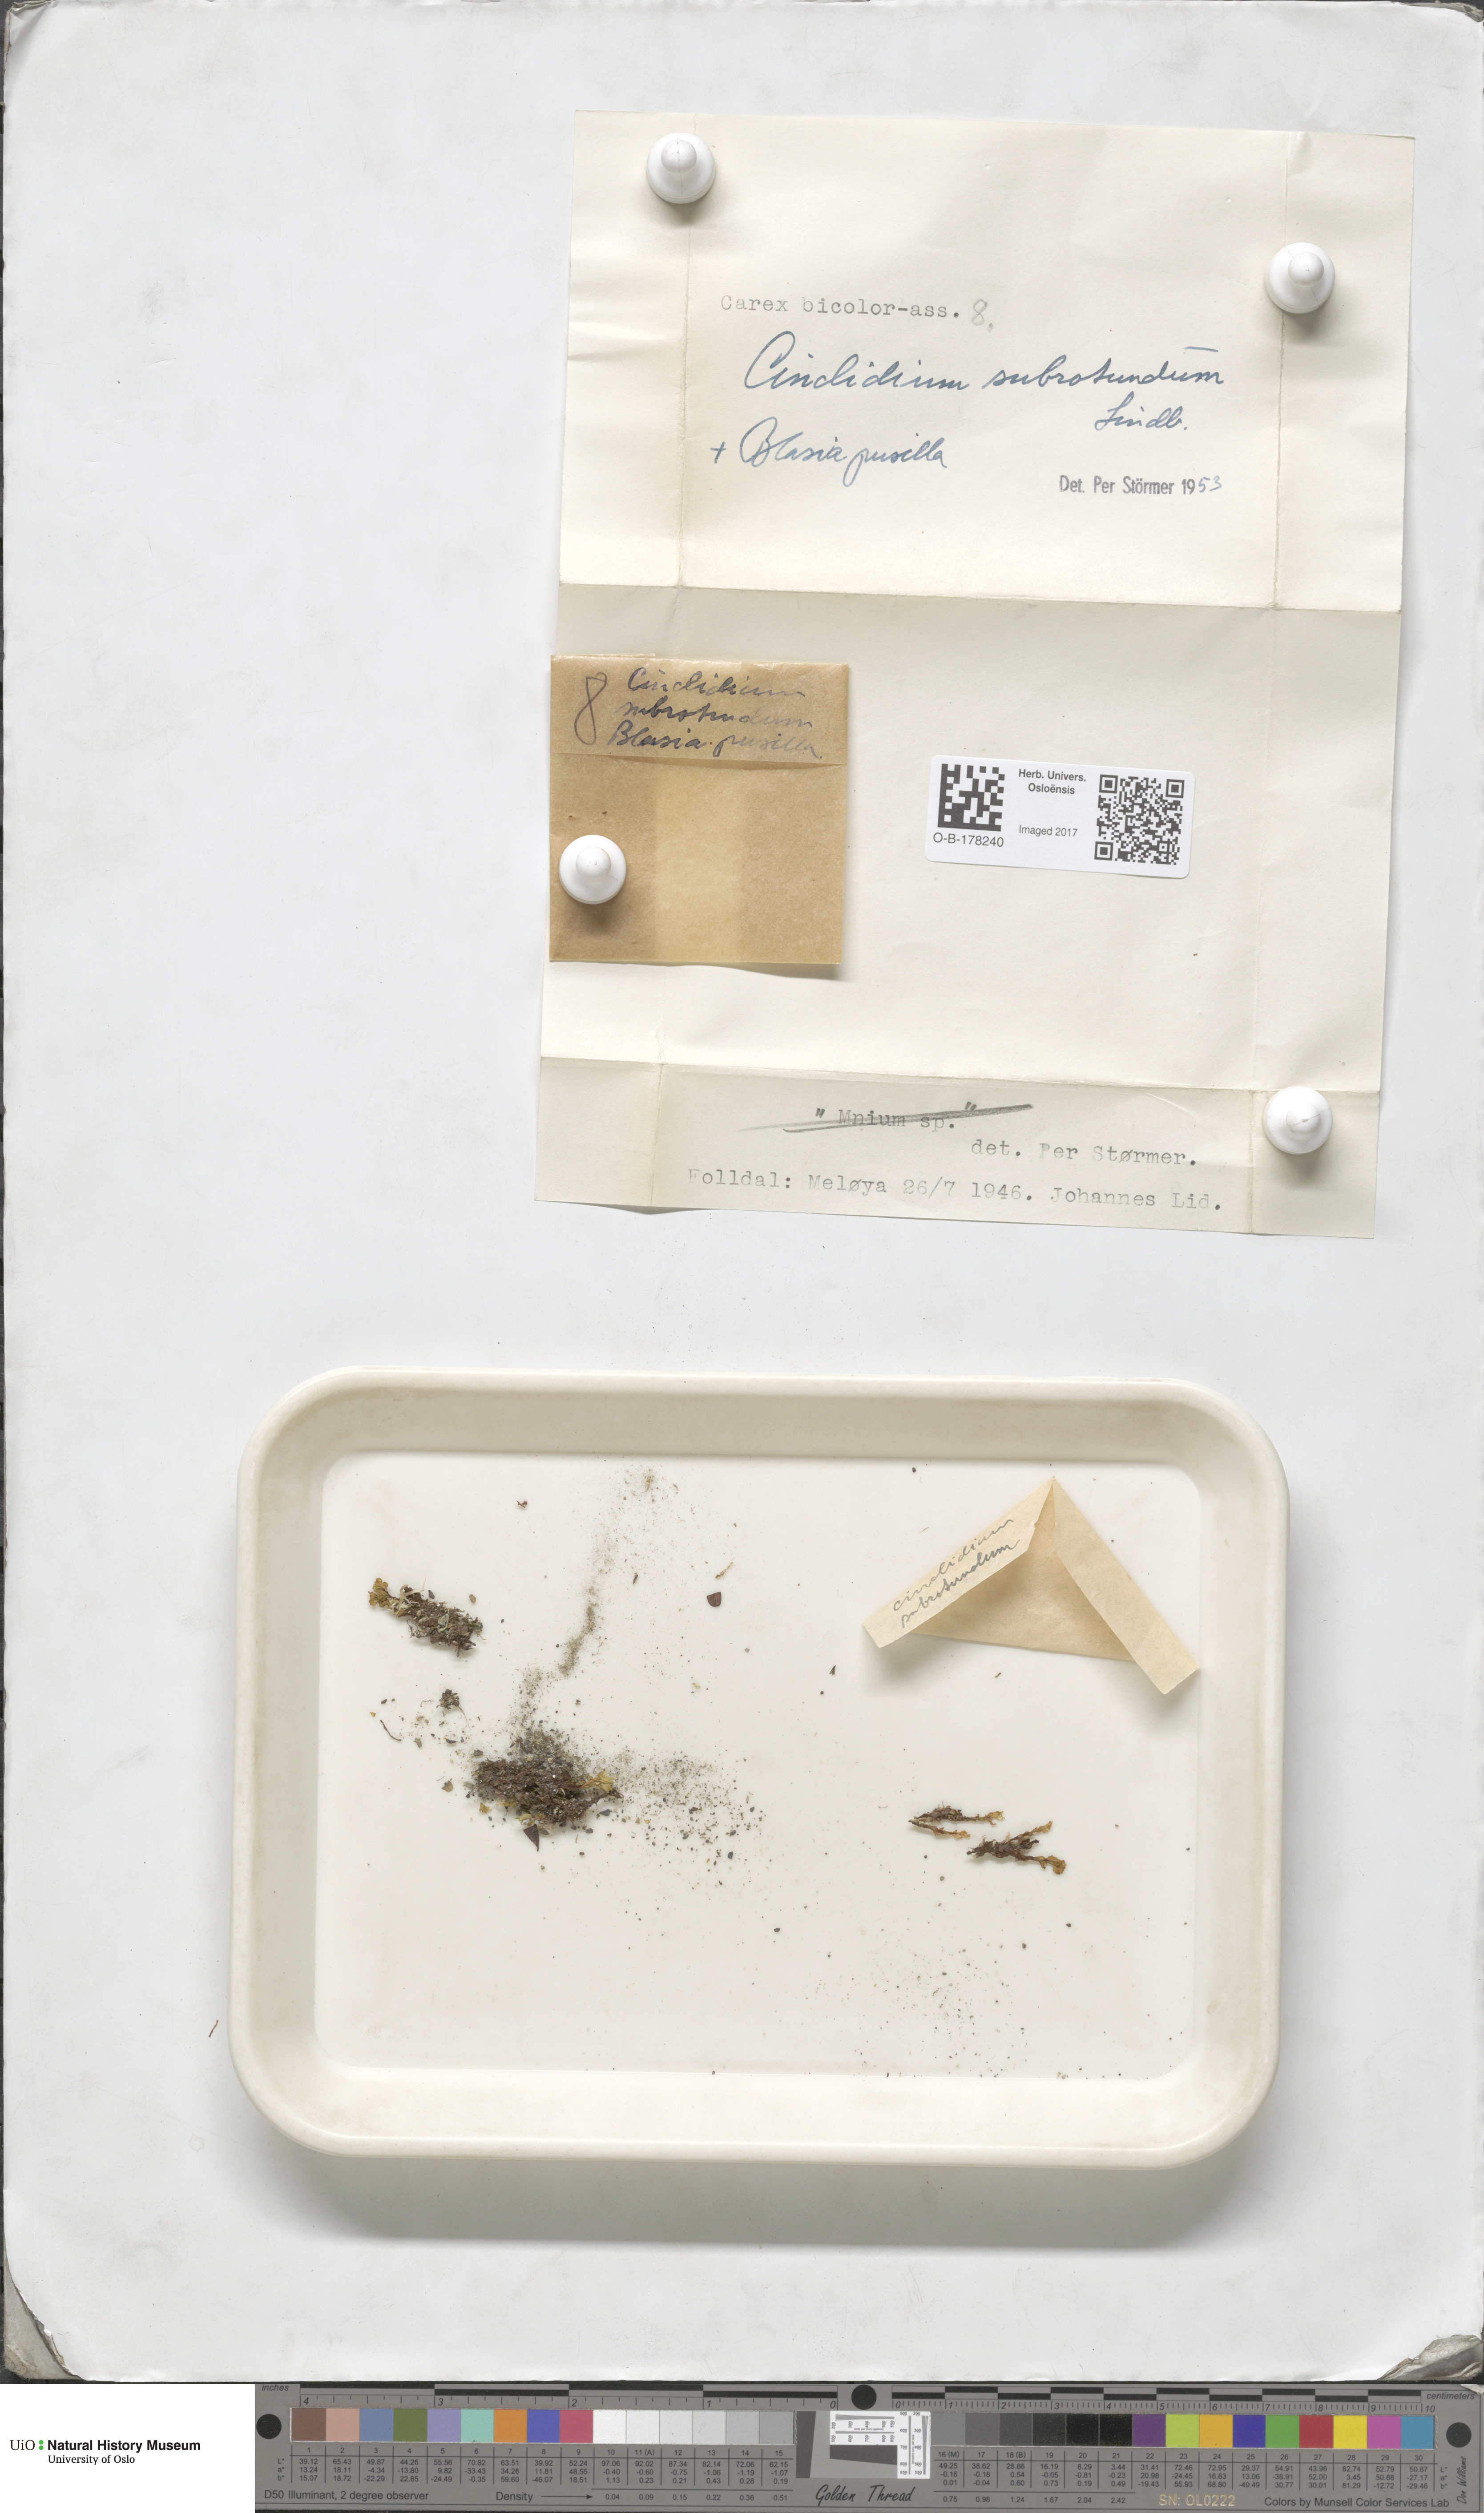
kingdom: Plantae
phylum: Bryophyta
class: Bryopsida
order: Bryales
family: Mniaceae
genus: Cinclidium
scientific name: Cinclidium subrotundum
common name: Ovate cupola moss
